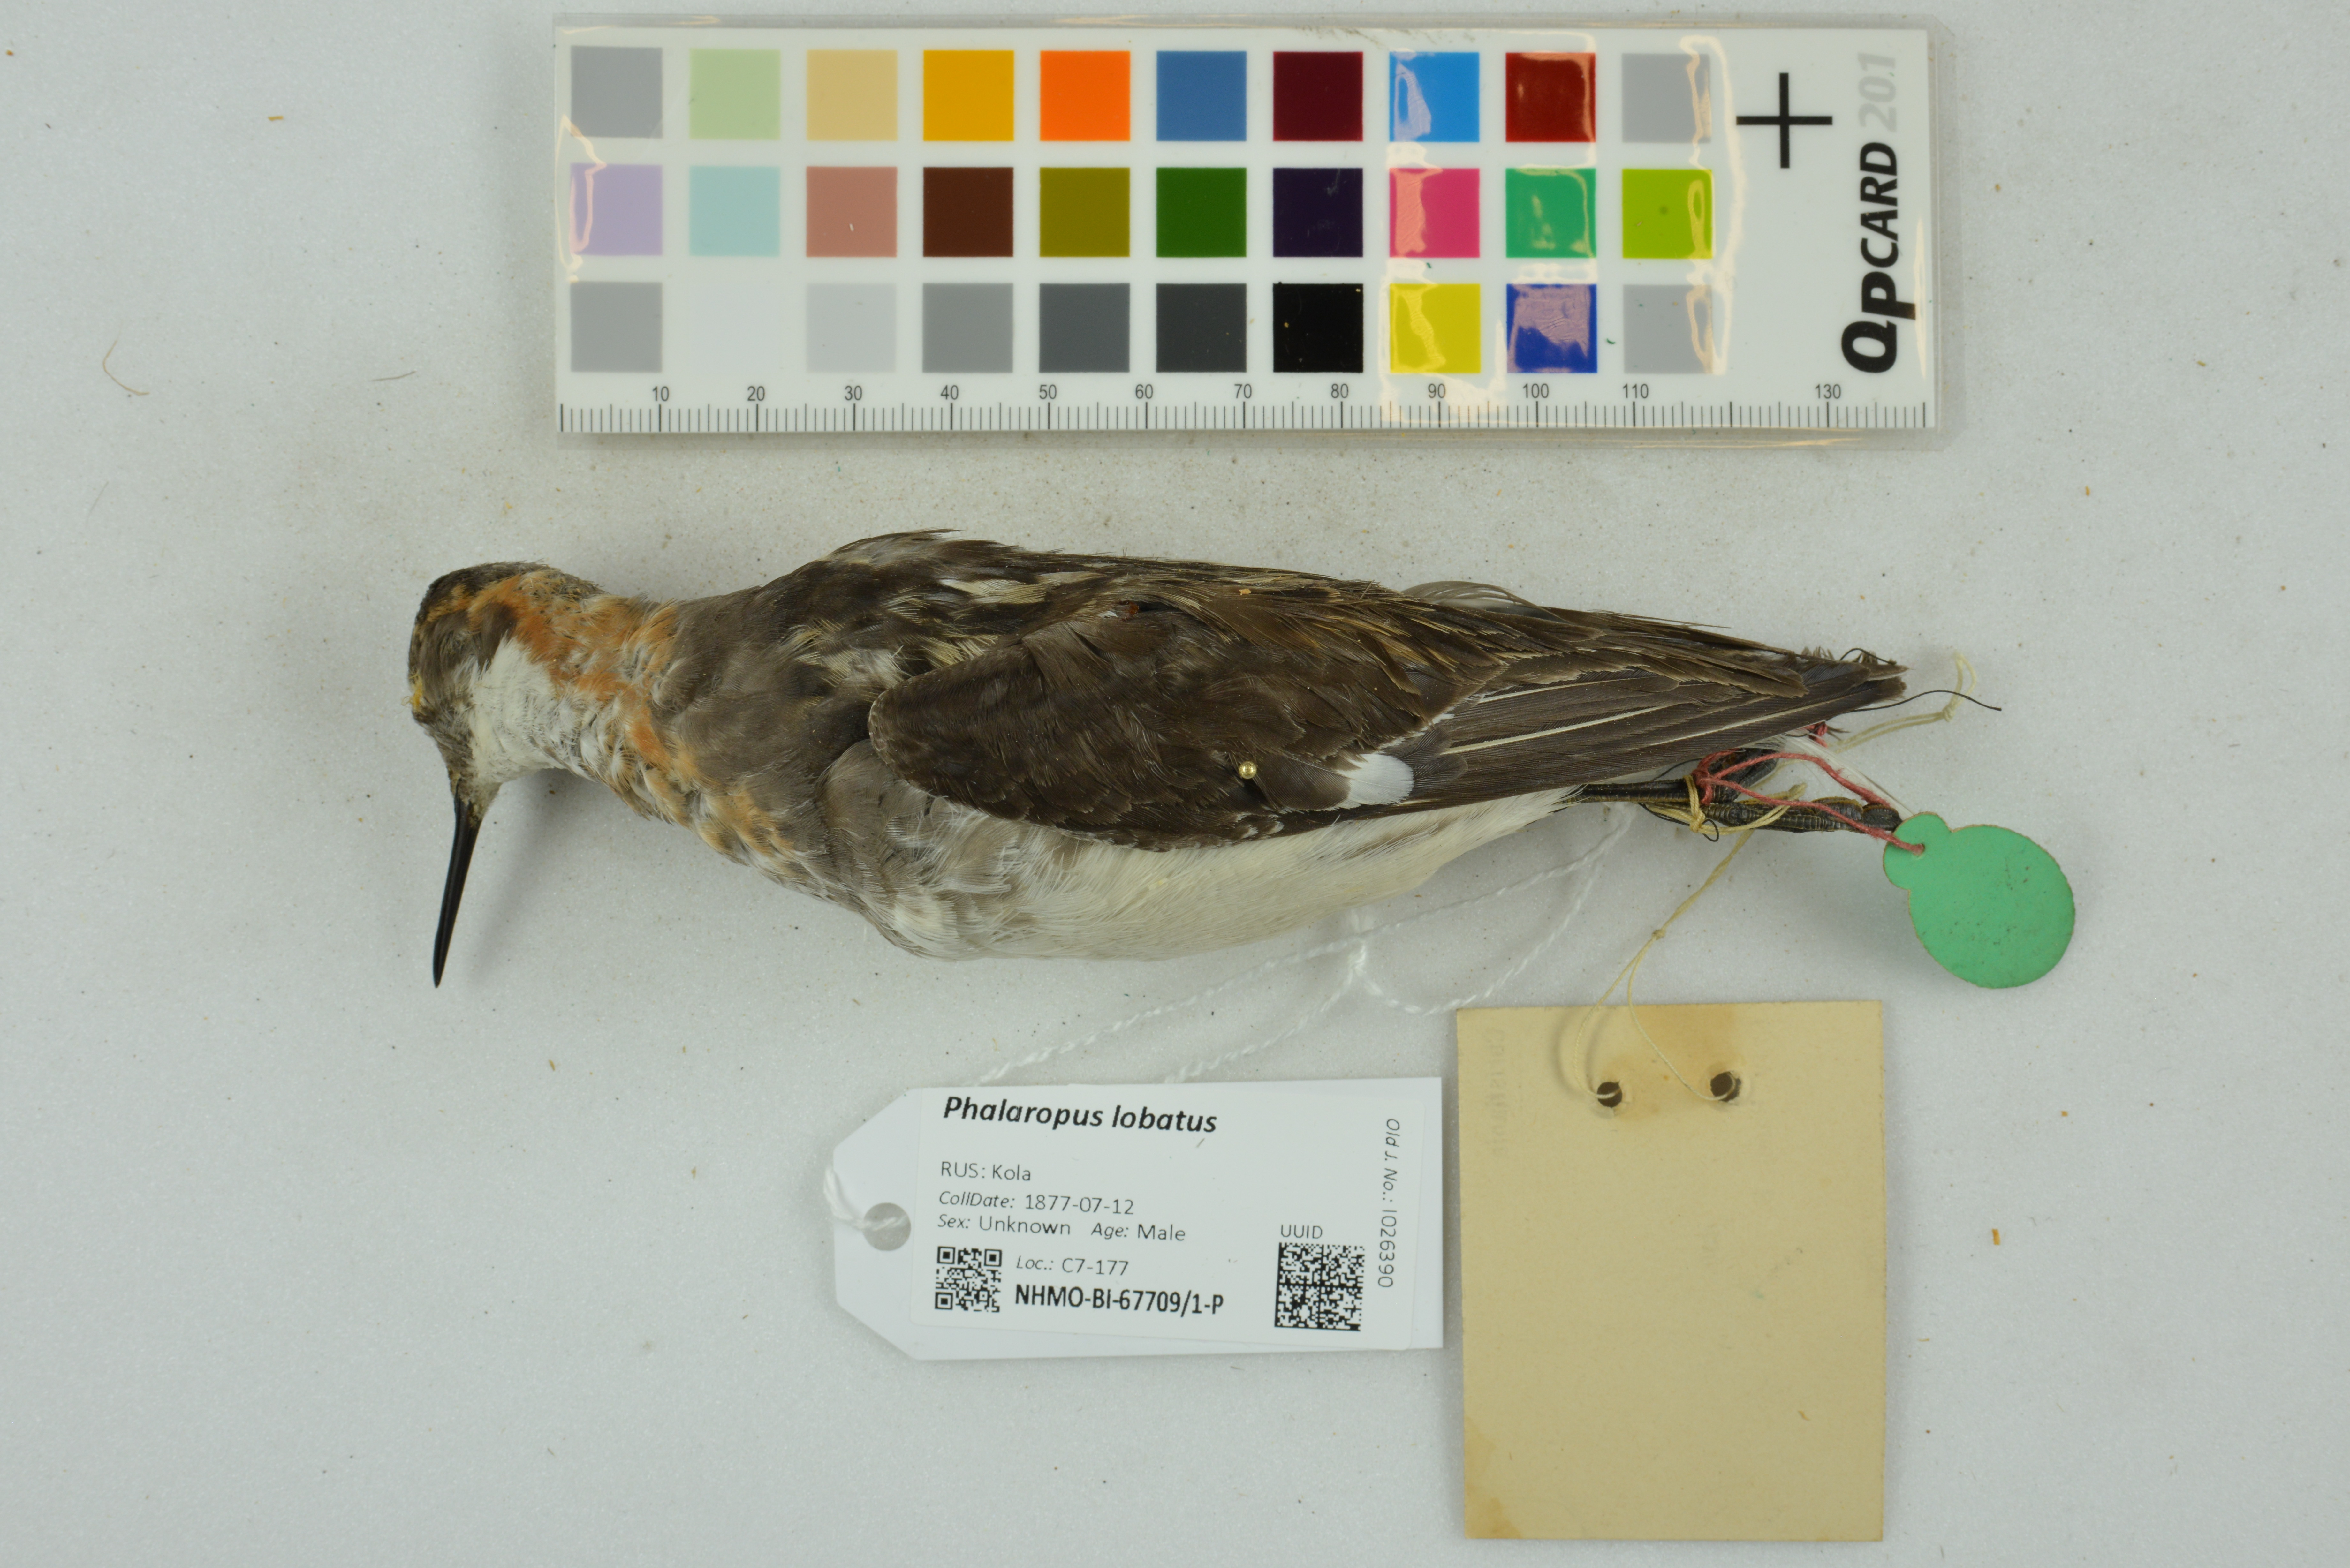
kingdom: Animalia
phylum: Chordata
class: Aves
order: Charadriiformes
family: Scolopacidae
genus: Phalaropus
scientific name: Phalaropus lobatus
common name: Red-necked phalarope
